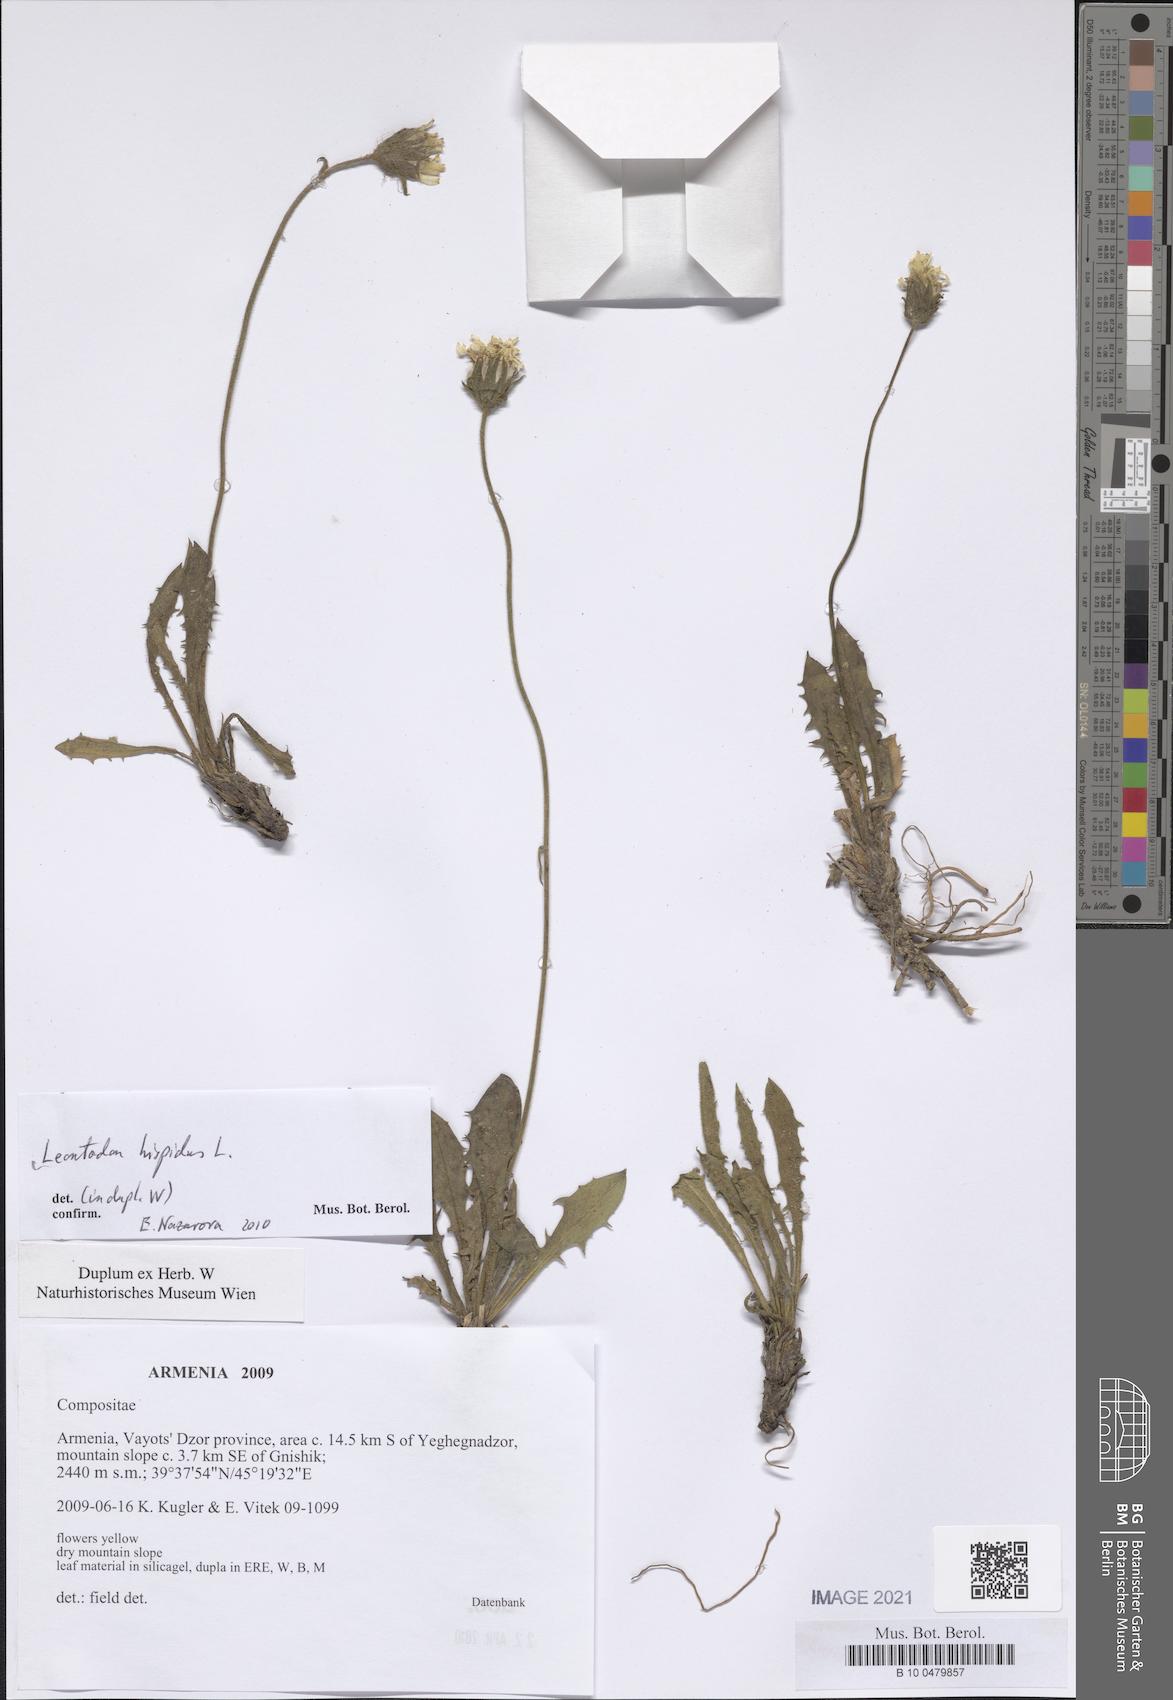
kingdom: Plantae
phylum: Tracheophyta
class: Magnoliopsida
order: Asterales
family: Asteraceae
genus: Leontodon
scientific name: Leontodon hispidus
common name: Rough hawkbit
